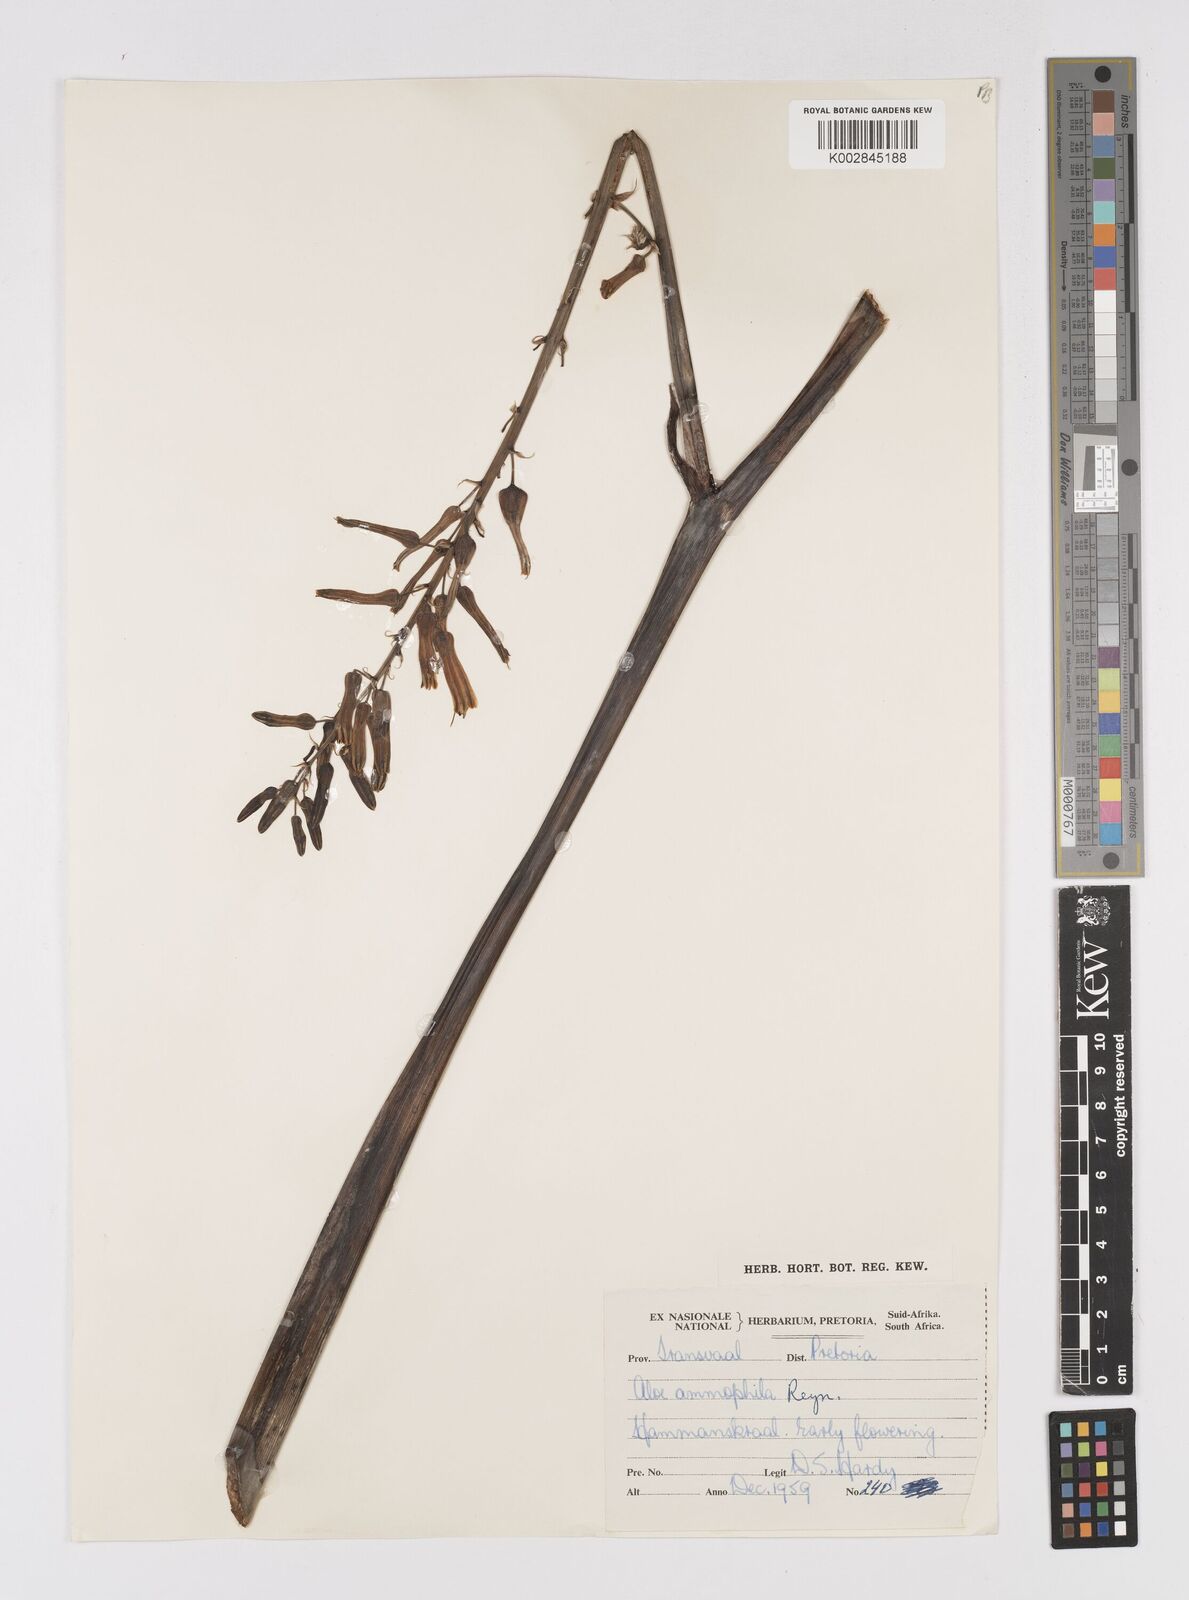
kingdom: Plantae
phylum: Tracheophyta
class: Liliopsida
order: Asparagales
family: Asphodelaceae
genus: Aloe
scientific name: Aloe ammophila
